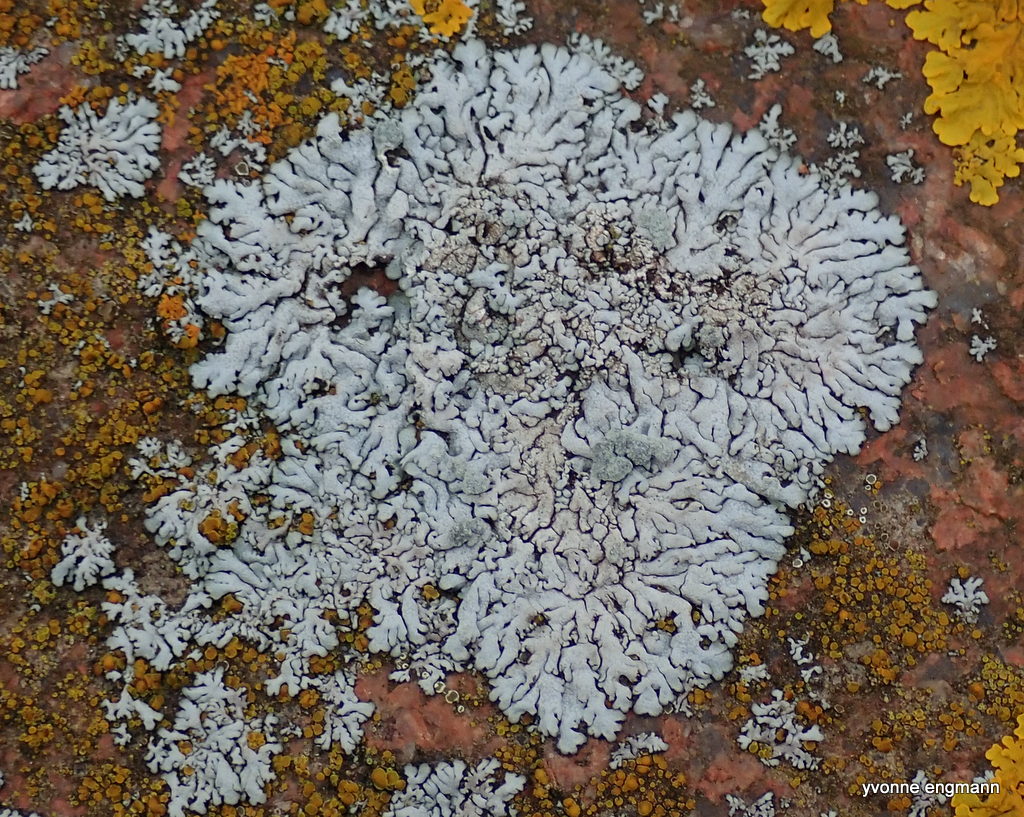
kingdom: Fungi
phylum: Ascomycota
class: Lecanoromycetes
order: Caliciales
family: Physciaceae
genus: Physcia
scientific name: Physcia caesia
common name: blågrå rosetlav
